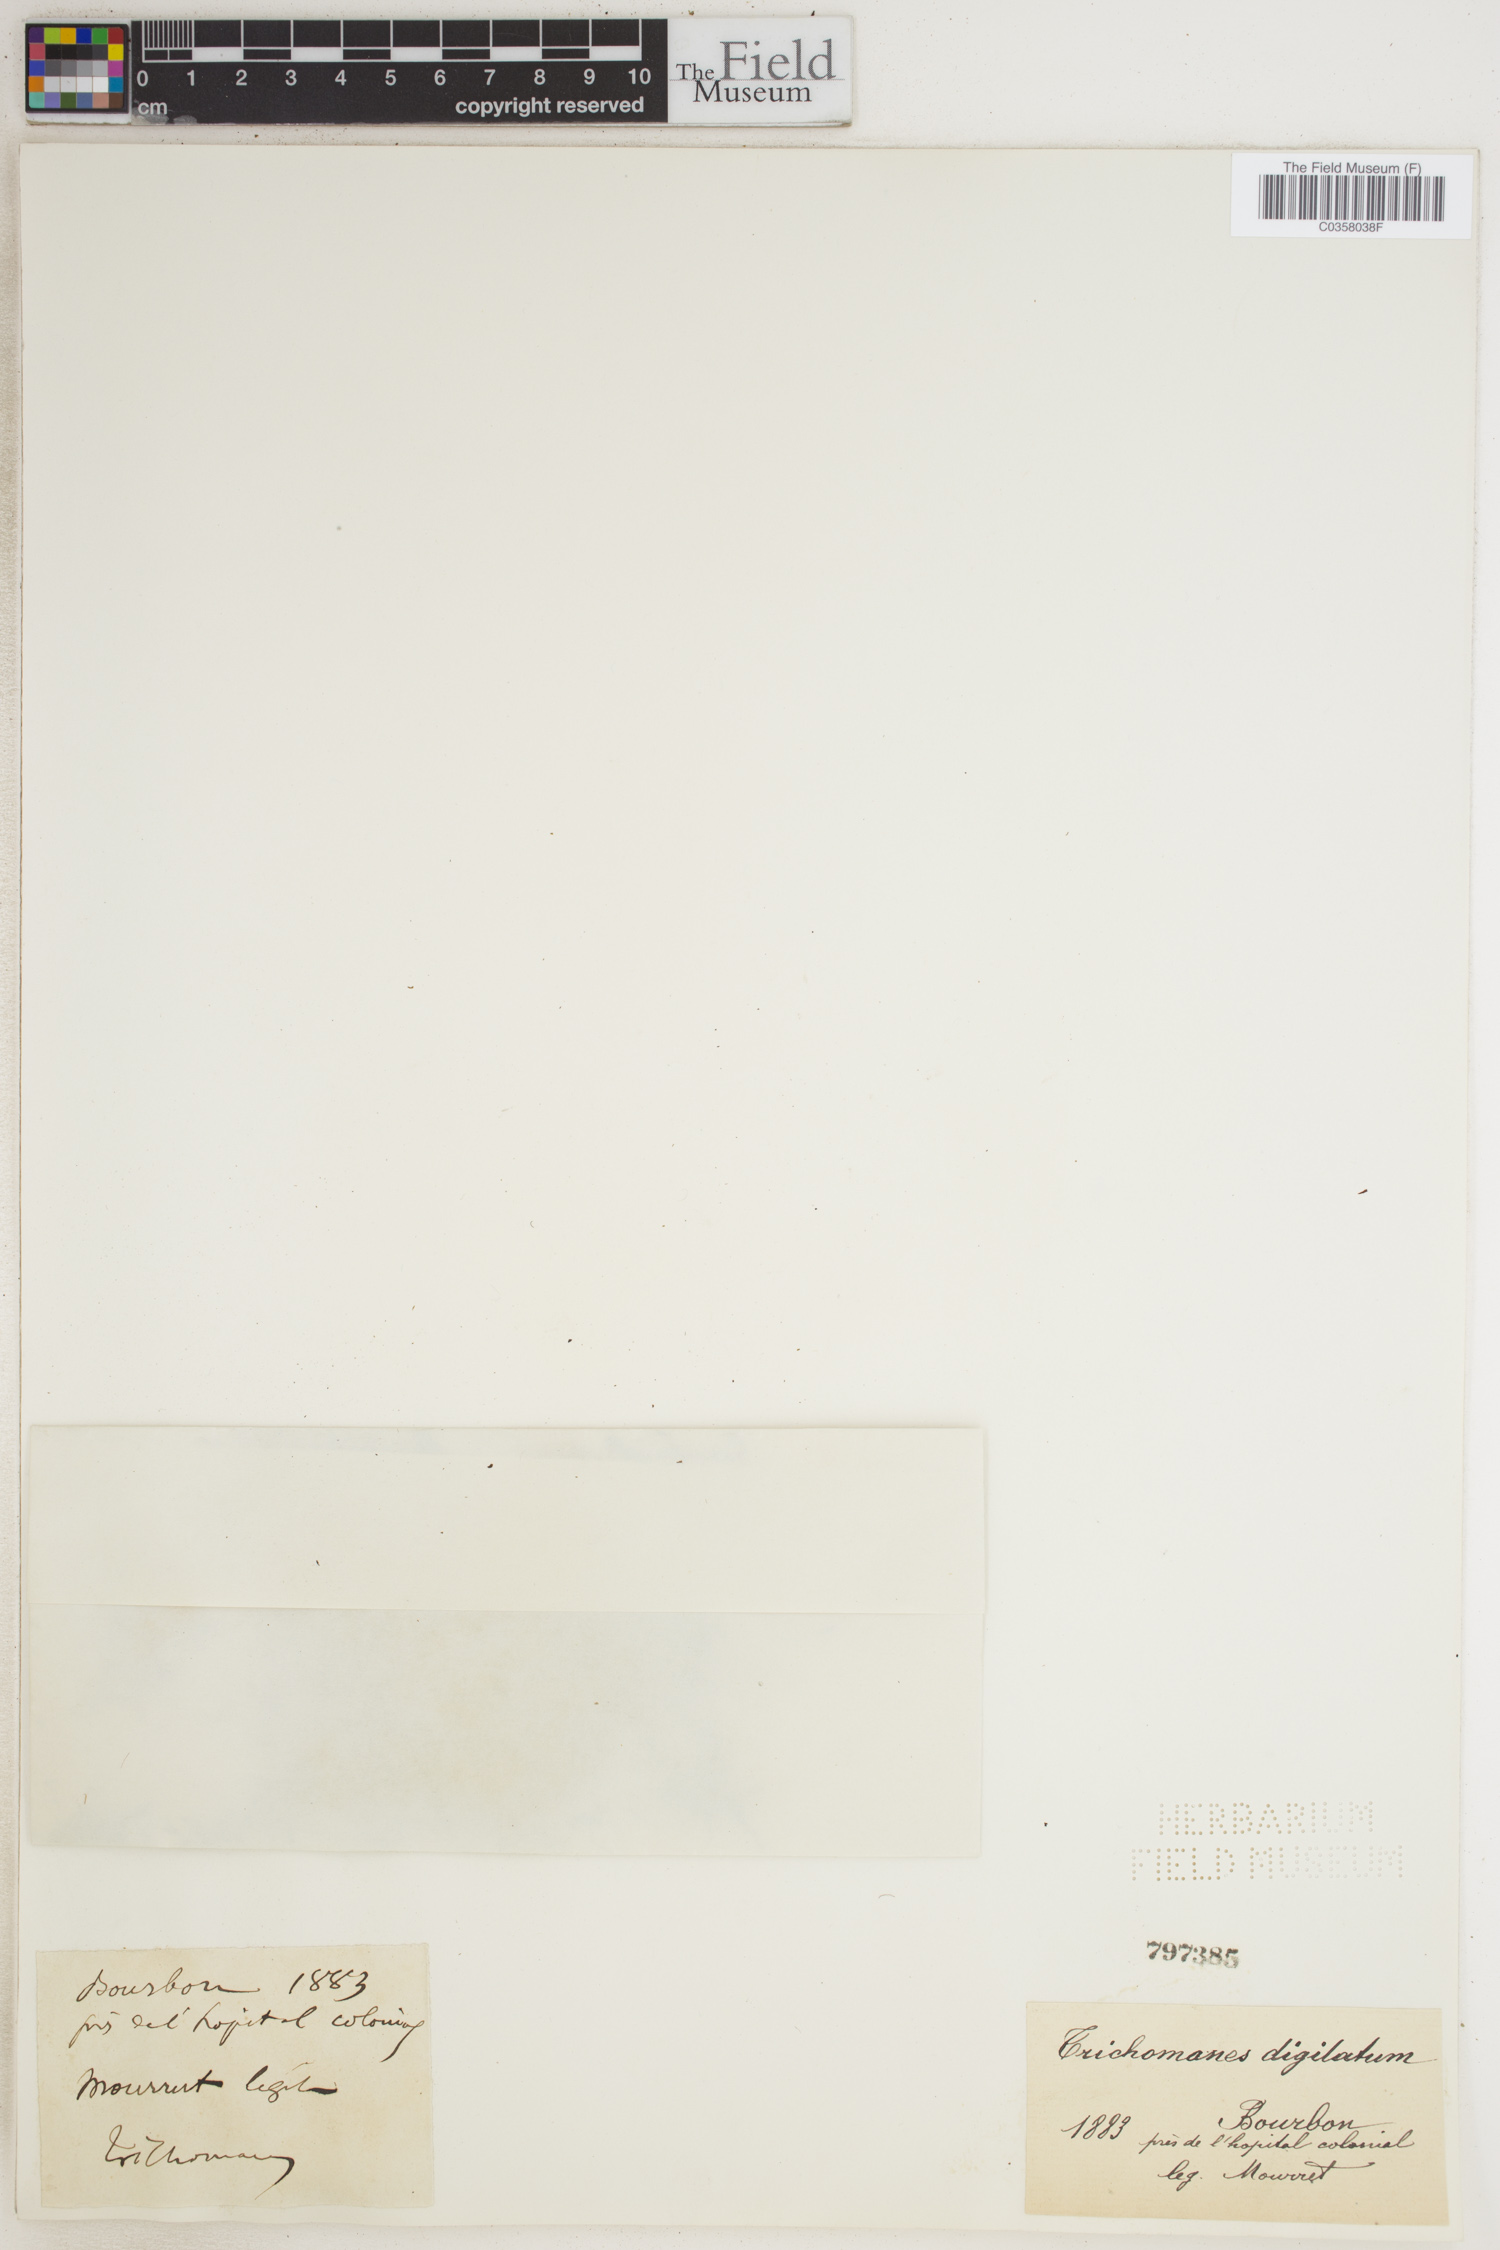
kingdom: Plantae
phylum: Tracheophyta
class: Polypodiopsida
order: Hymenophyllales
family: Hymenophyllaceae
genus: Hymenophyllum
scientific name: Hymenophyllum digitatum
